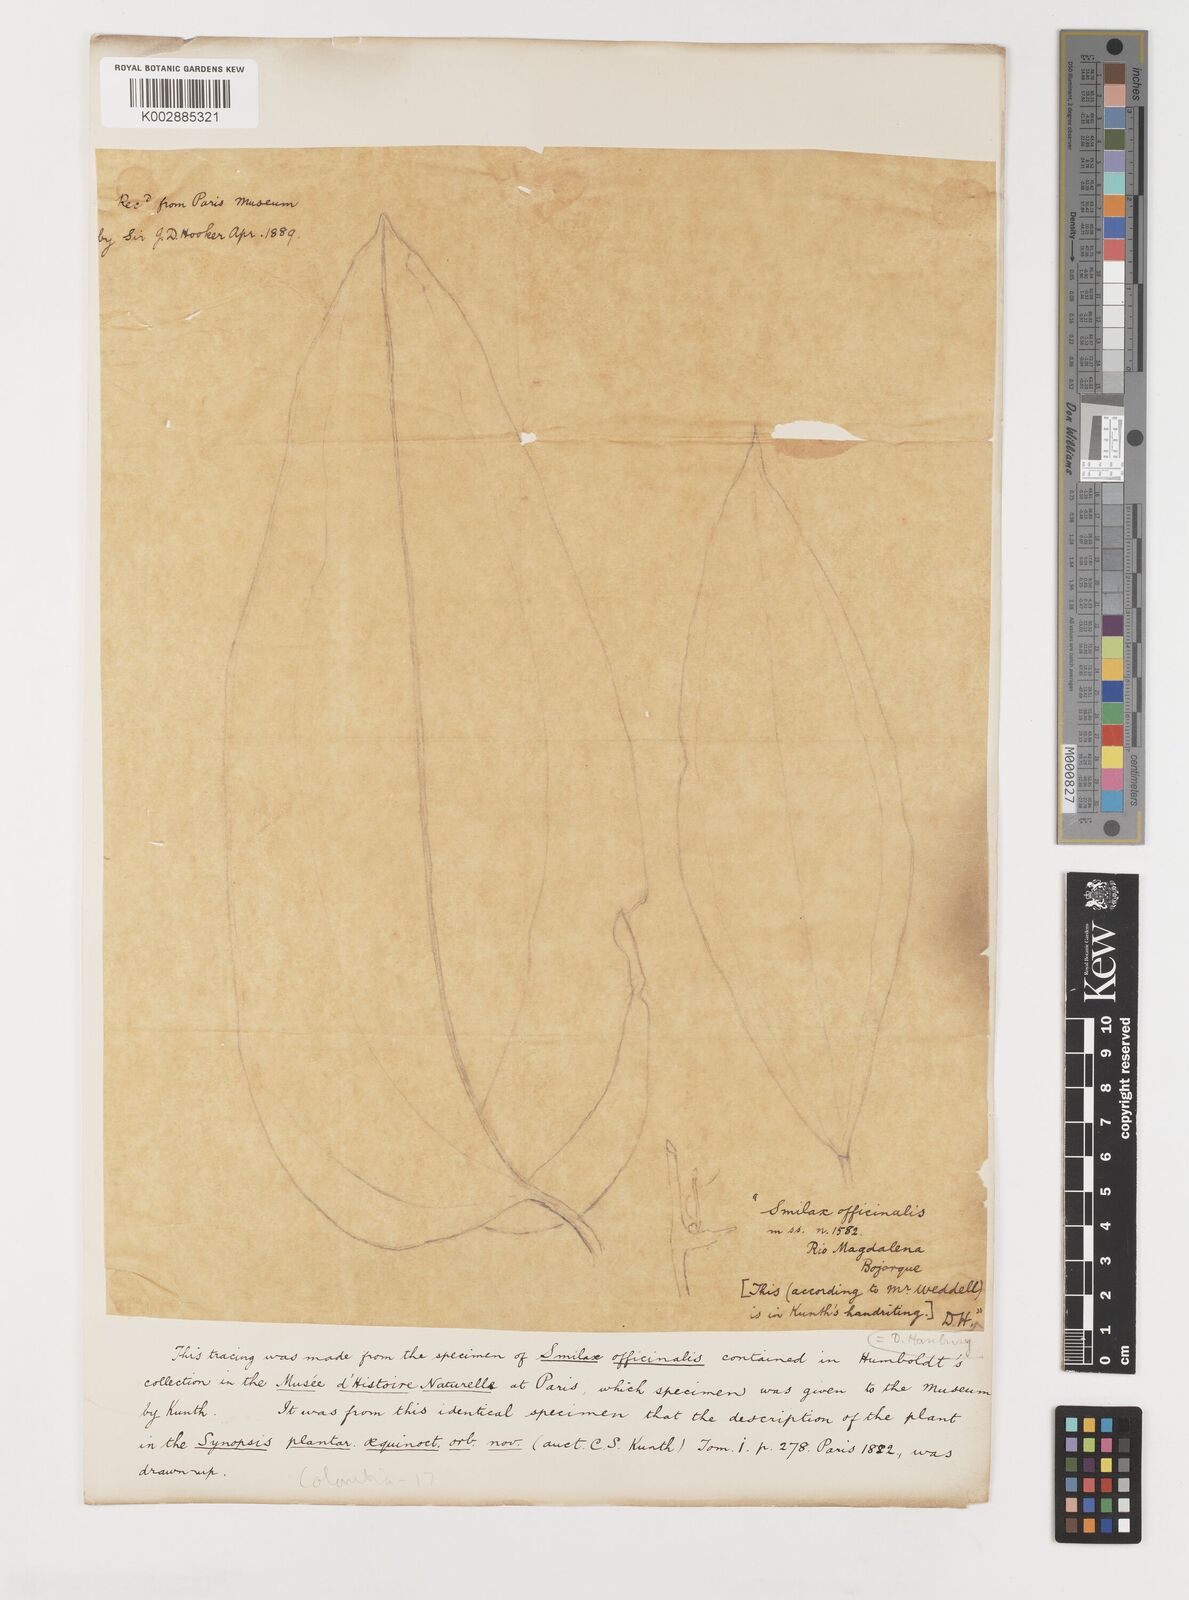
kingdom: Plantae
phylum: Tracheophyta
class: Liliopsida
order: Liliales
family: Smilacaceae
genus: Smilax
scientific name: Smilax officinalis
